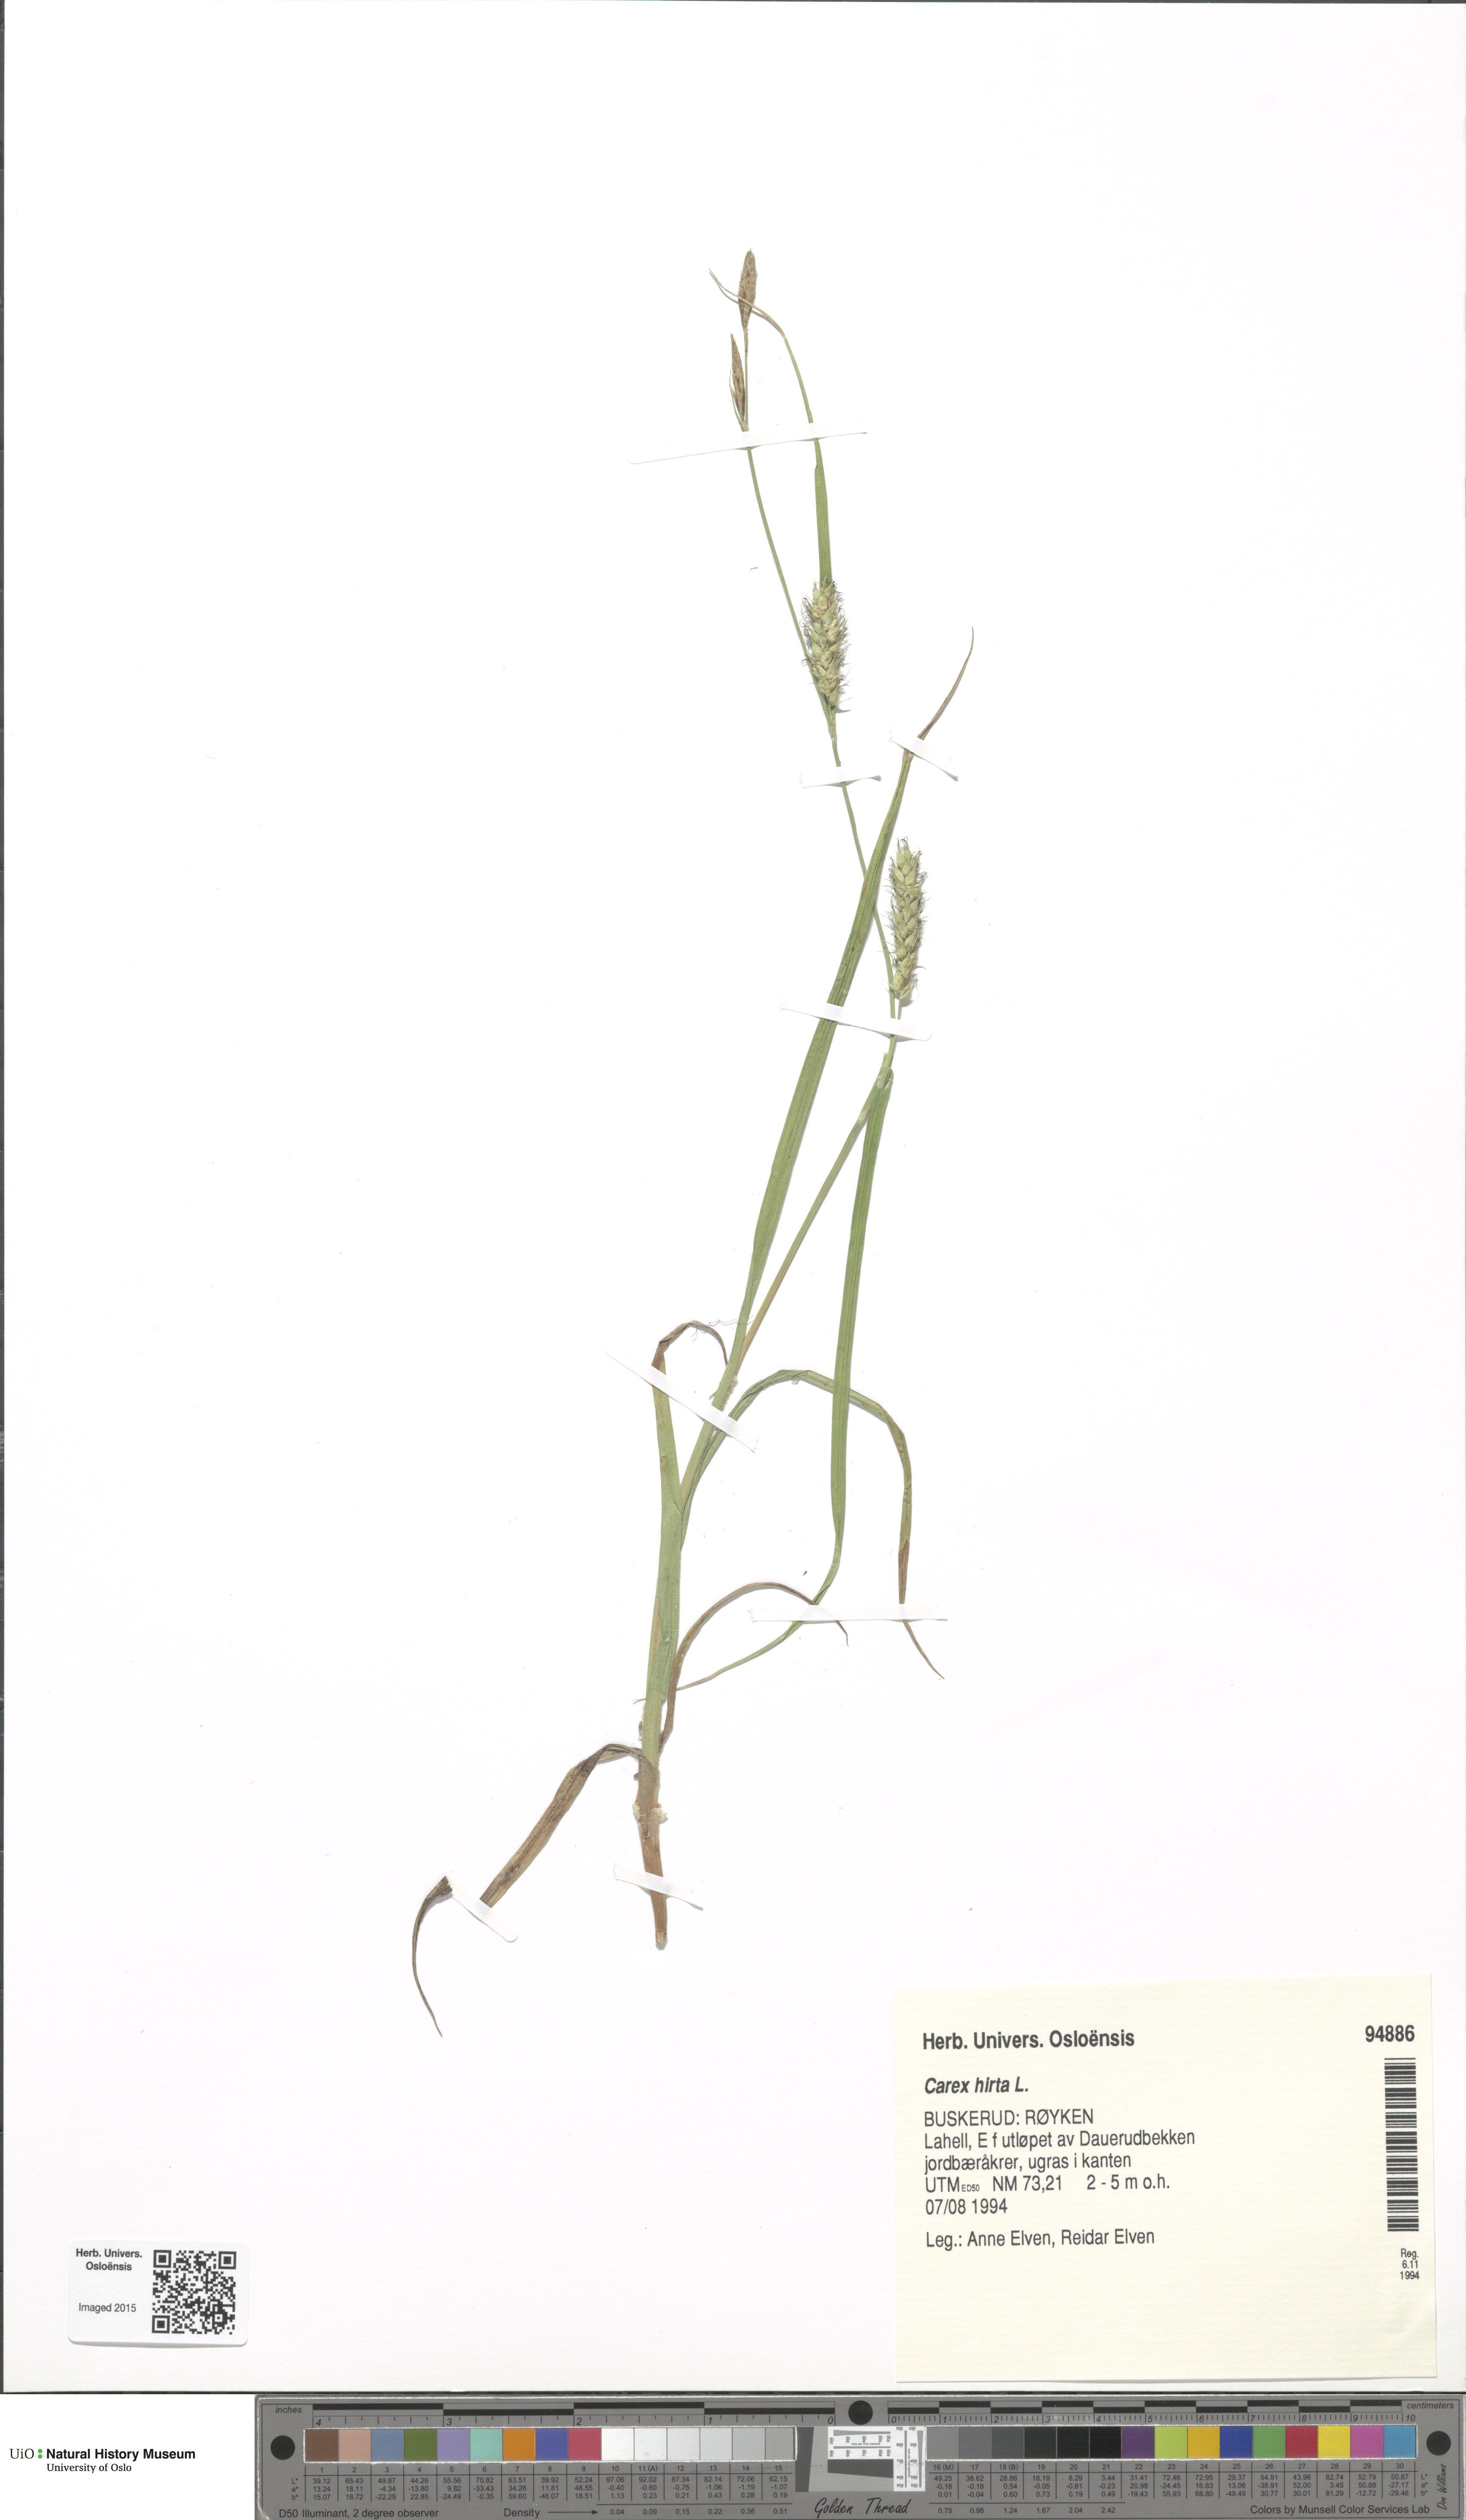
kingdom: Plantae
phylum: Tracheophyta
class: Liliopsida
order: Poales
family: Cyperaceae
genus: Carex
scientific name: Carex hirta
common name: Hairy sedge
